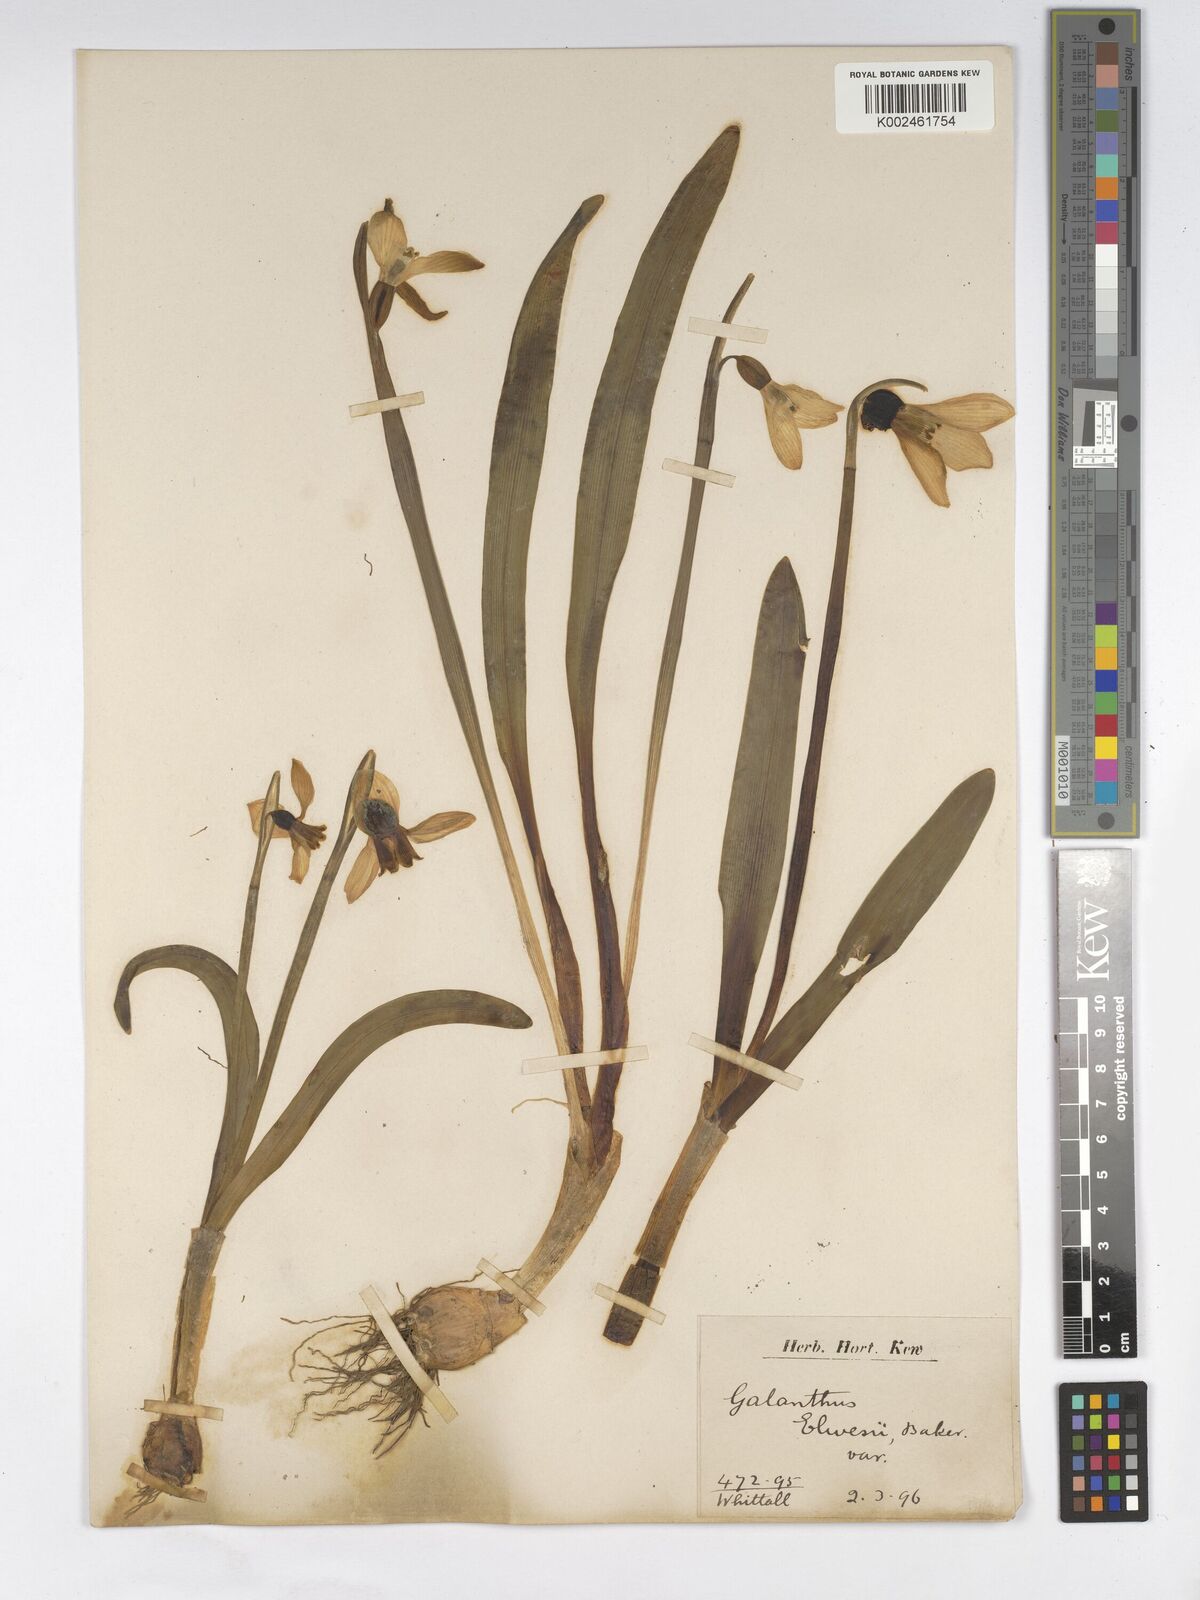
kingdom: Plantae
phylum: Tracheophyta
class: Liliopsida
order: Asparagales
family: Amaryllidaceae
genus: Galanthus
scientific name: Galanthus elwesii
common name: Greater snowdrop
